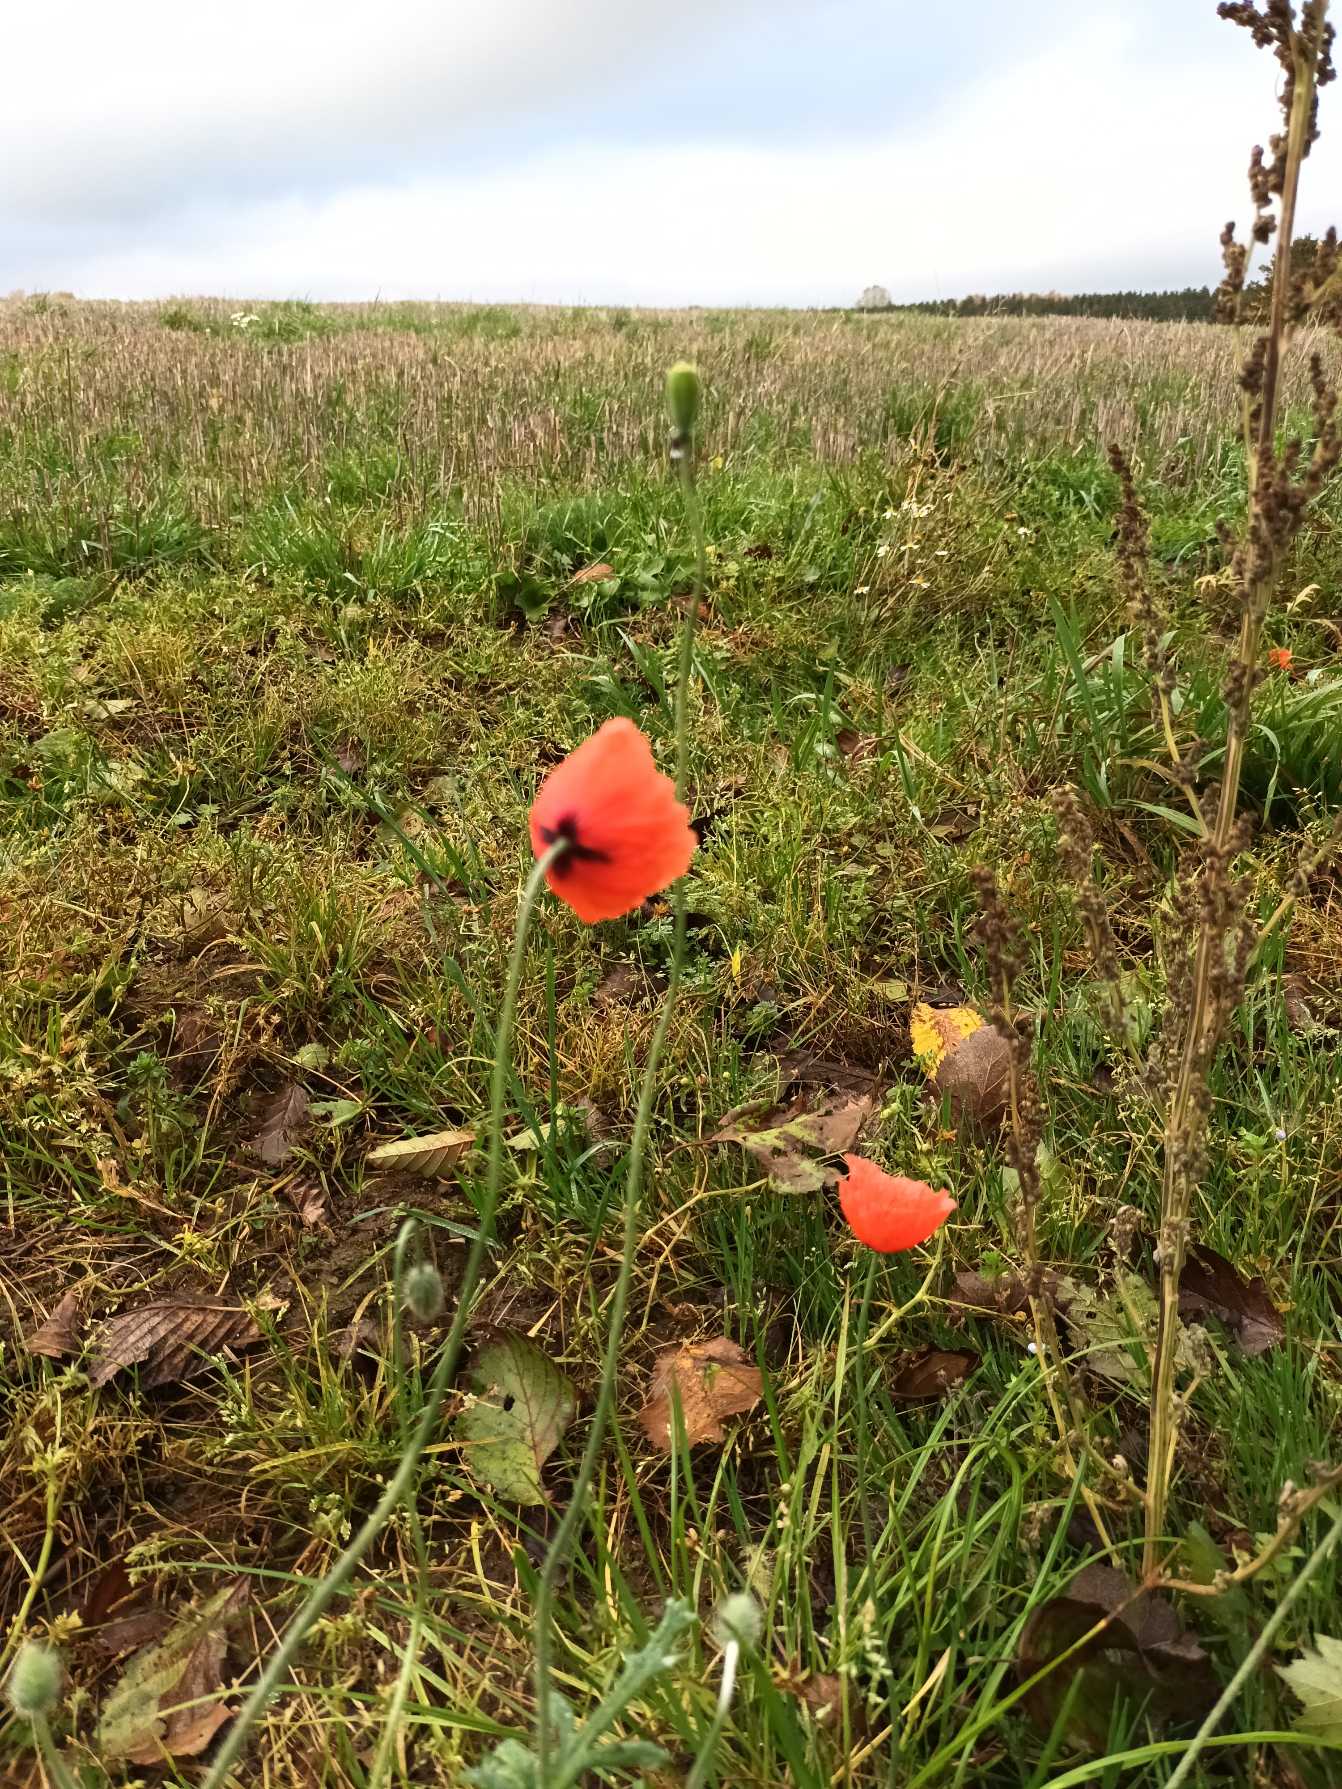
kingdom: Plantae
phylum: Tracheophyta
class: Magnoliopsida
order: Ranunculales
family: Papaveraceae
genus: Papaver
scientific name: Papaver dubium
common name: Gærde-valmue
